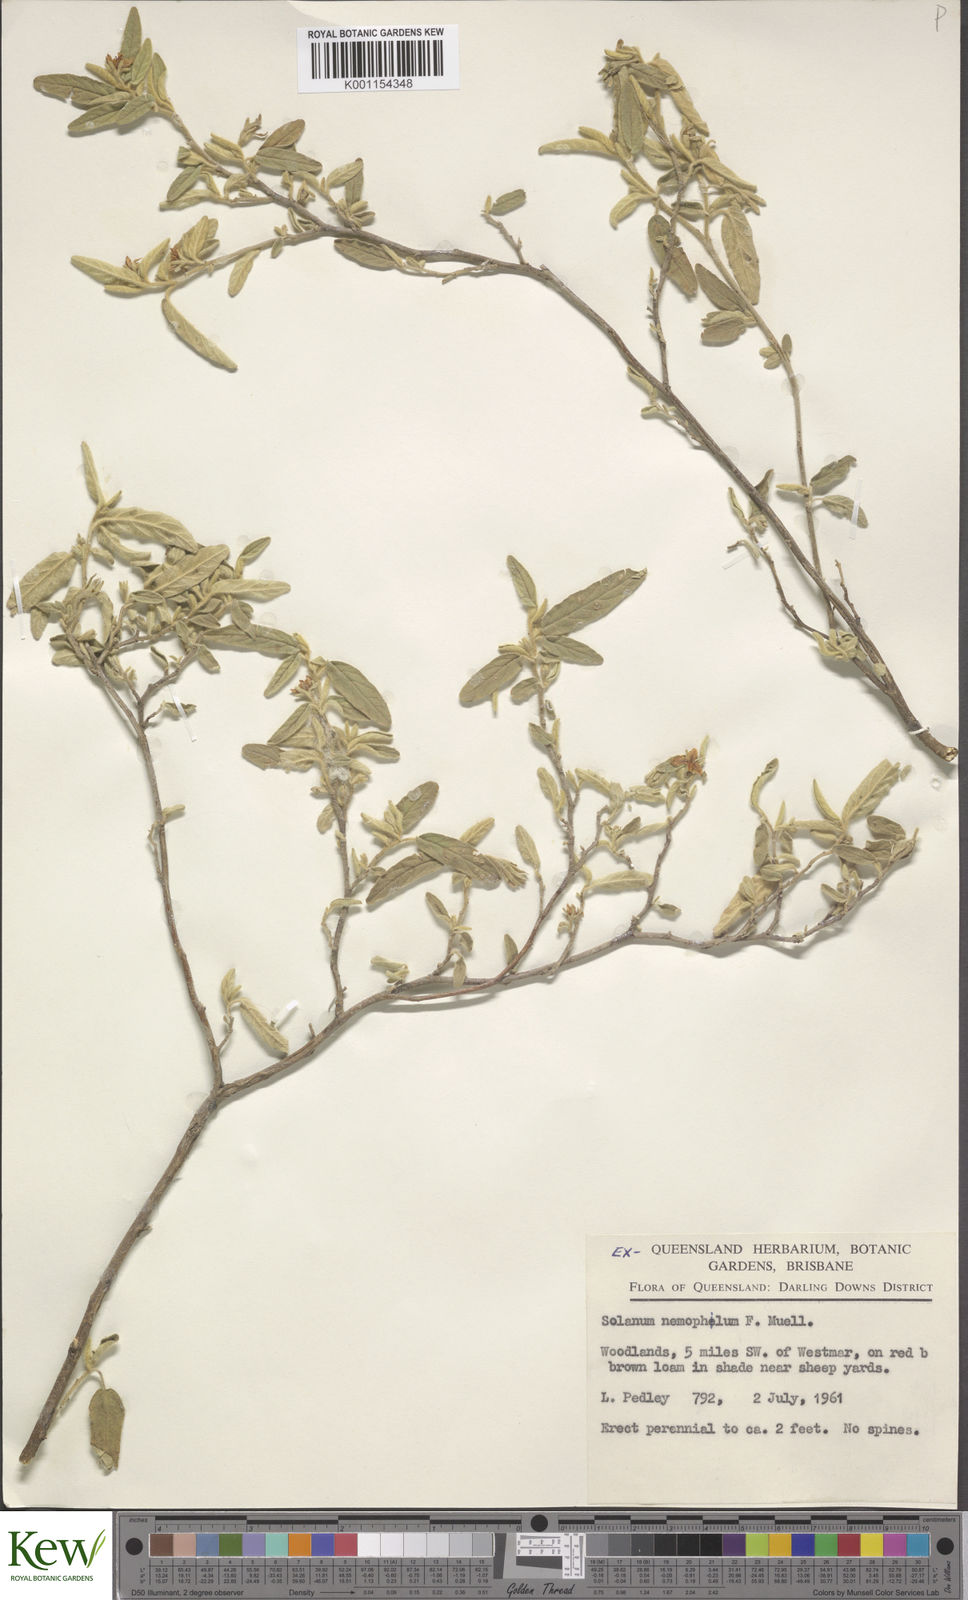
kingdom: Plantae
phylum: Tracheophyta
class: Magnoliopsida
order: Solanales
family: Solanaceae
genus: Solanum
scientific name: Solanum nemophilum
